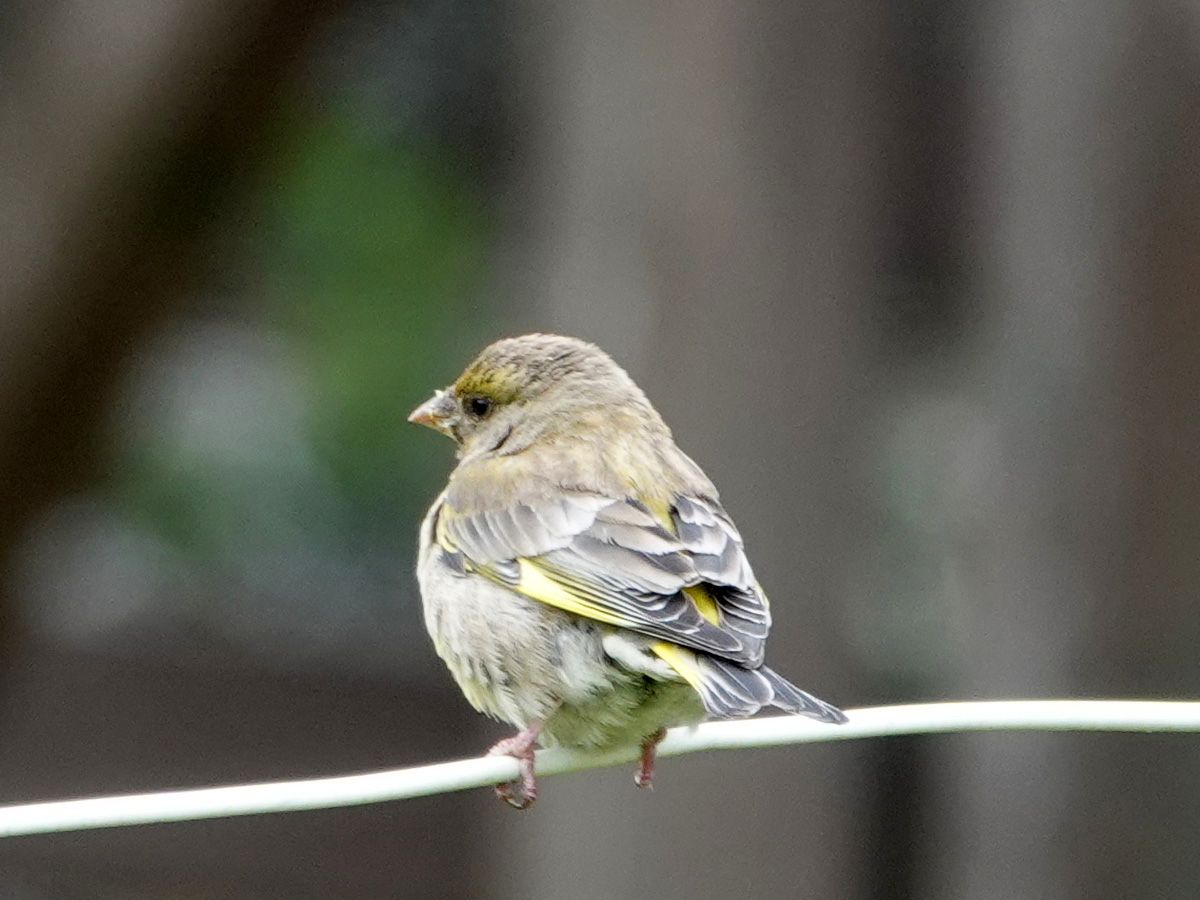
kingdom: Plantae
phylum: Tracheophyta
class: Liliopsida
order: Poales
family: Poaceae
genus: Chloris
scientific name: Chloris chloris
